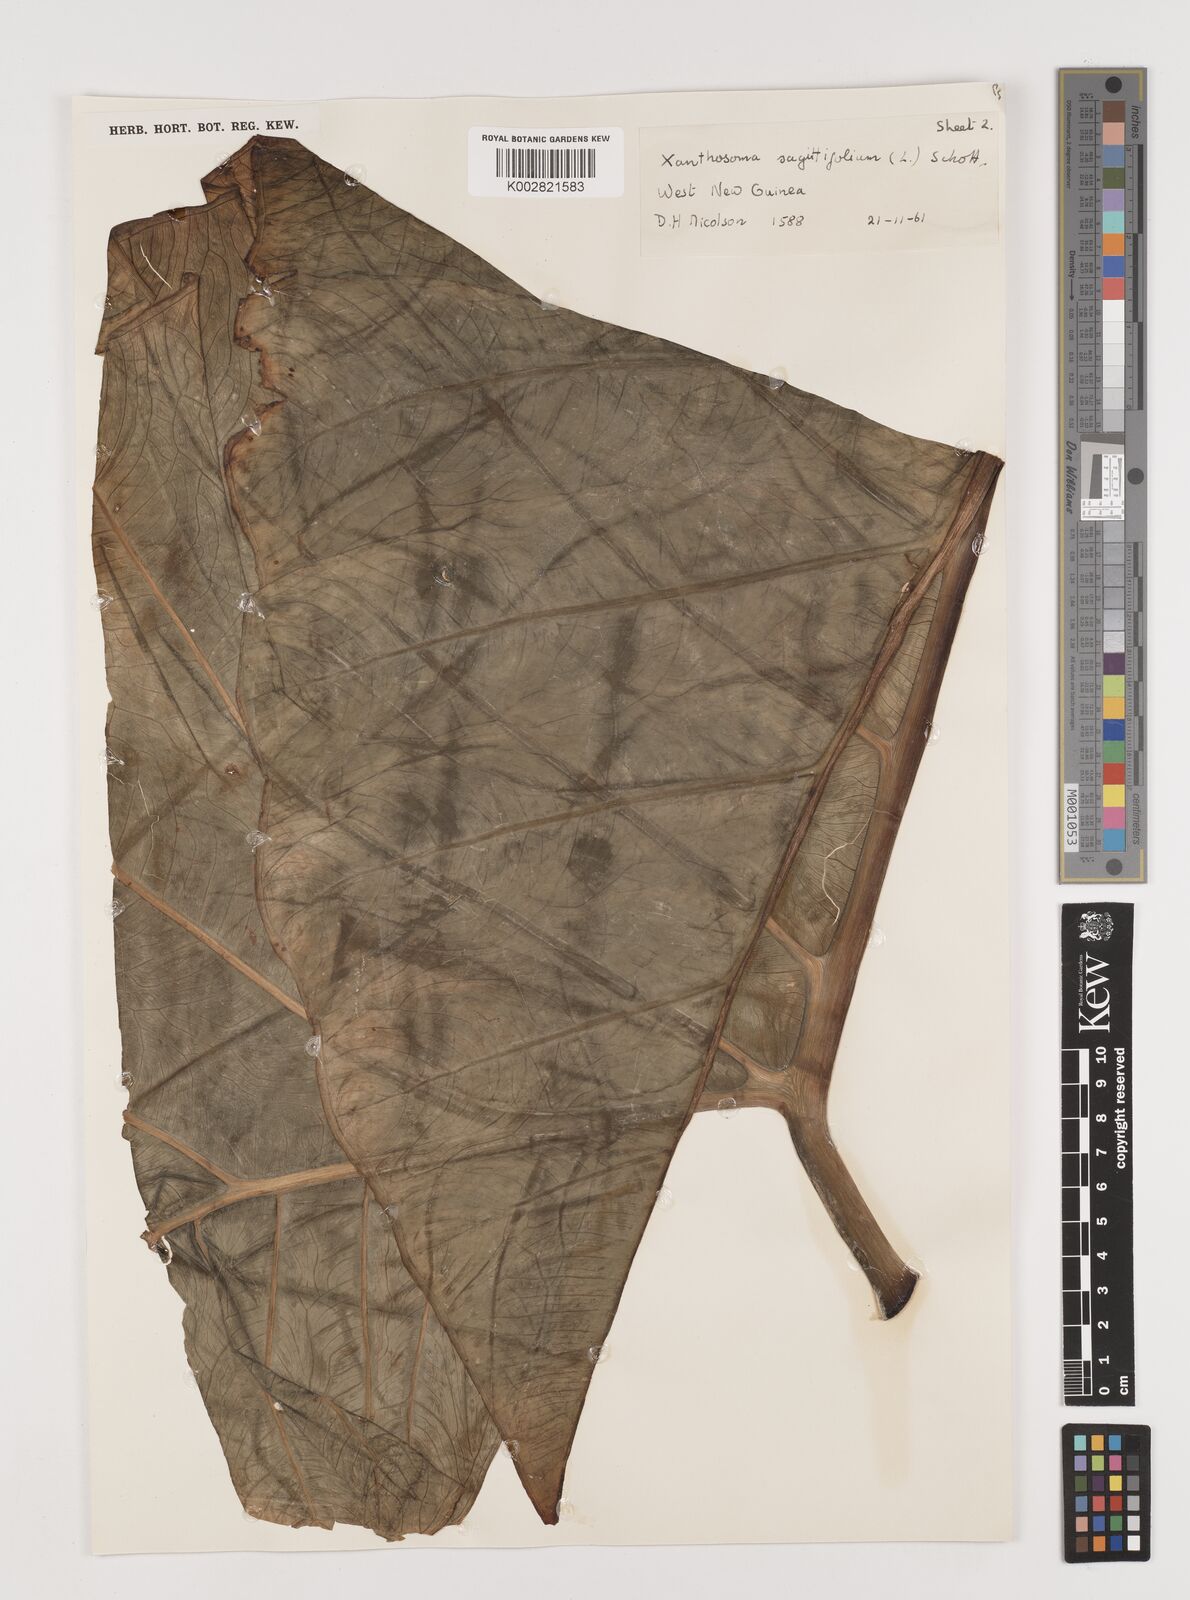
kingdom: Plantae
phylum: Tracheophyta
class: Liliopsida
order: Alismatales
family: Araceae
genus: Xanthosoma
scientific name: Xanthosoma sagittifolium
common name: Arrowleaf elephant's ear
